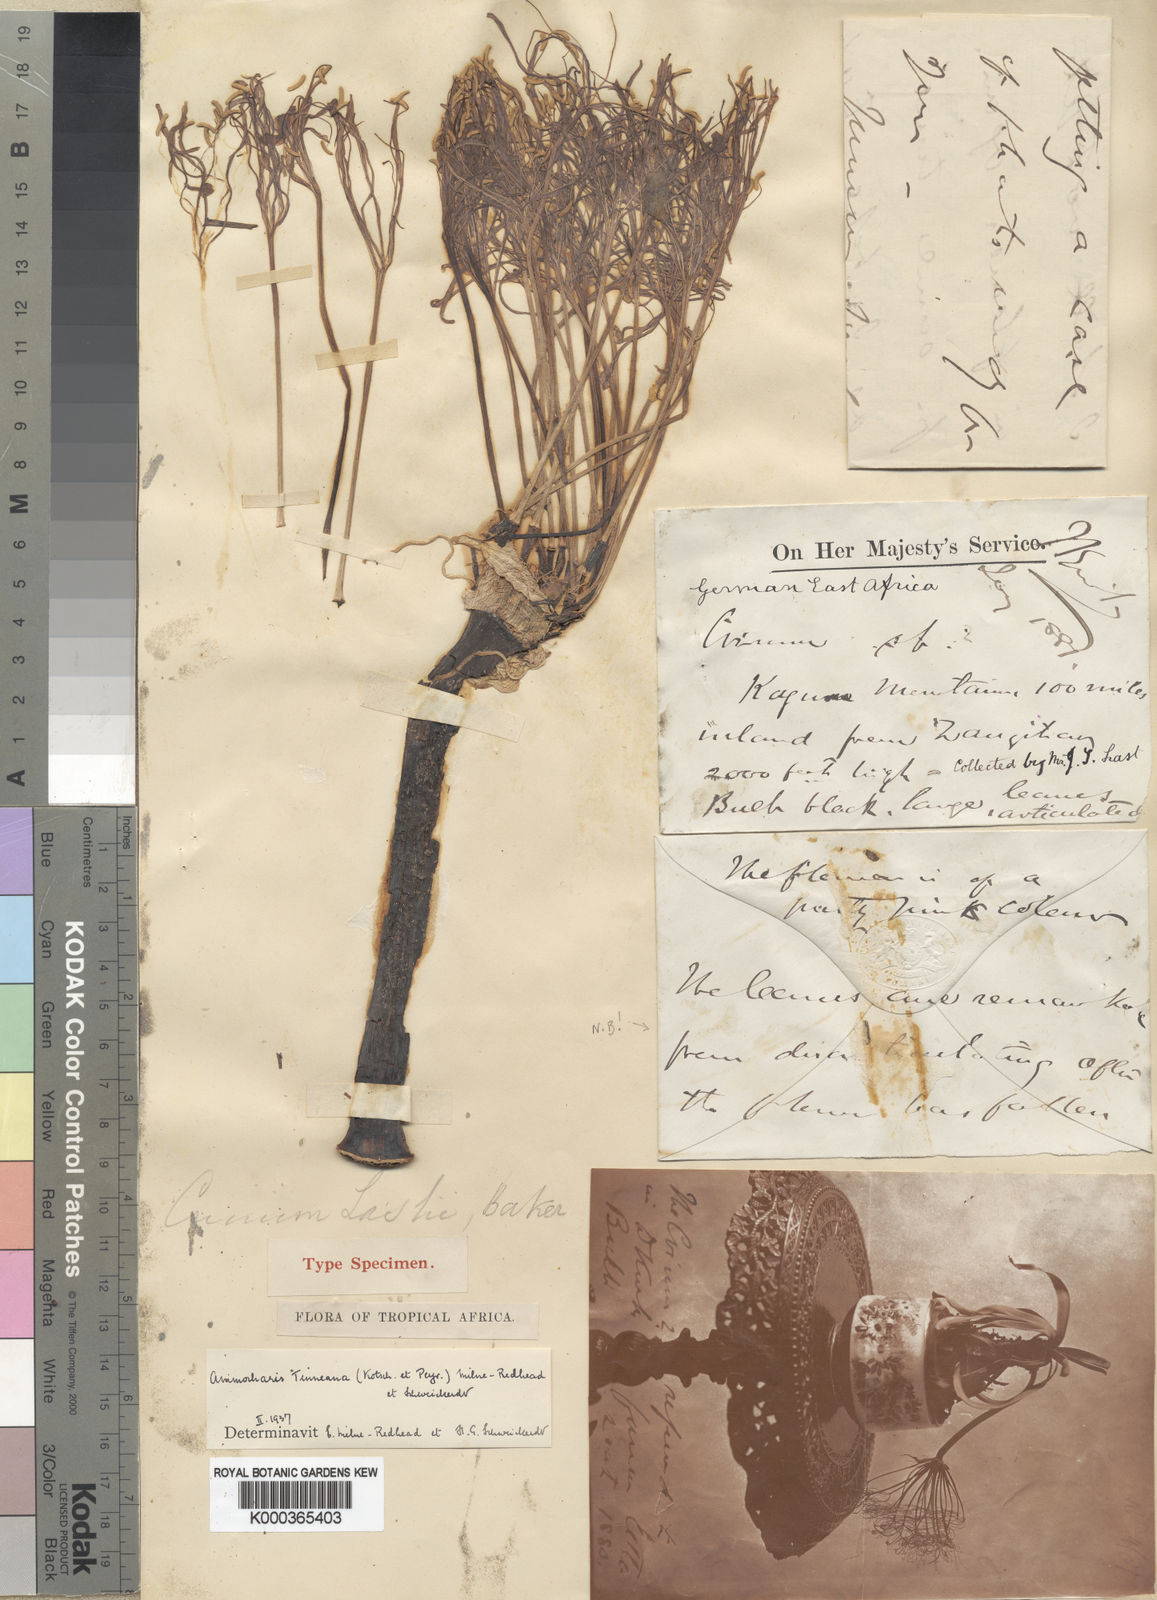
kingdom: Plantae
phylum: Tracheophyta
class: Liliopsida
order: Asparagales
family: Amaryllidaceae
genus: Ammocharis
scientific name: Ammocharis tinneana
